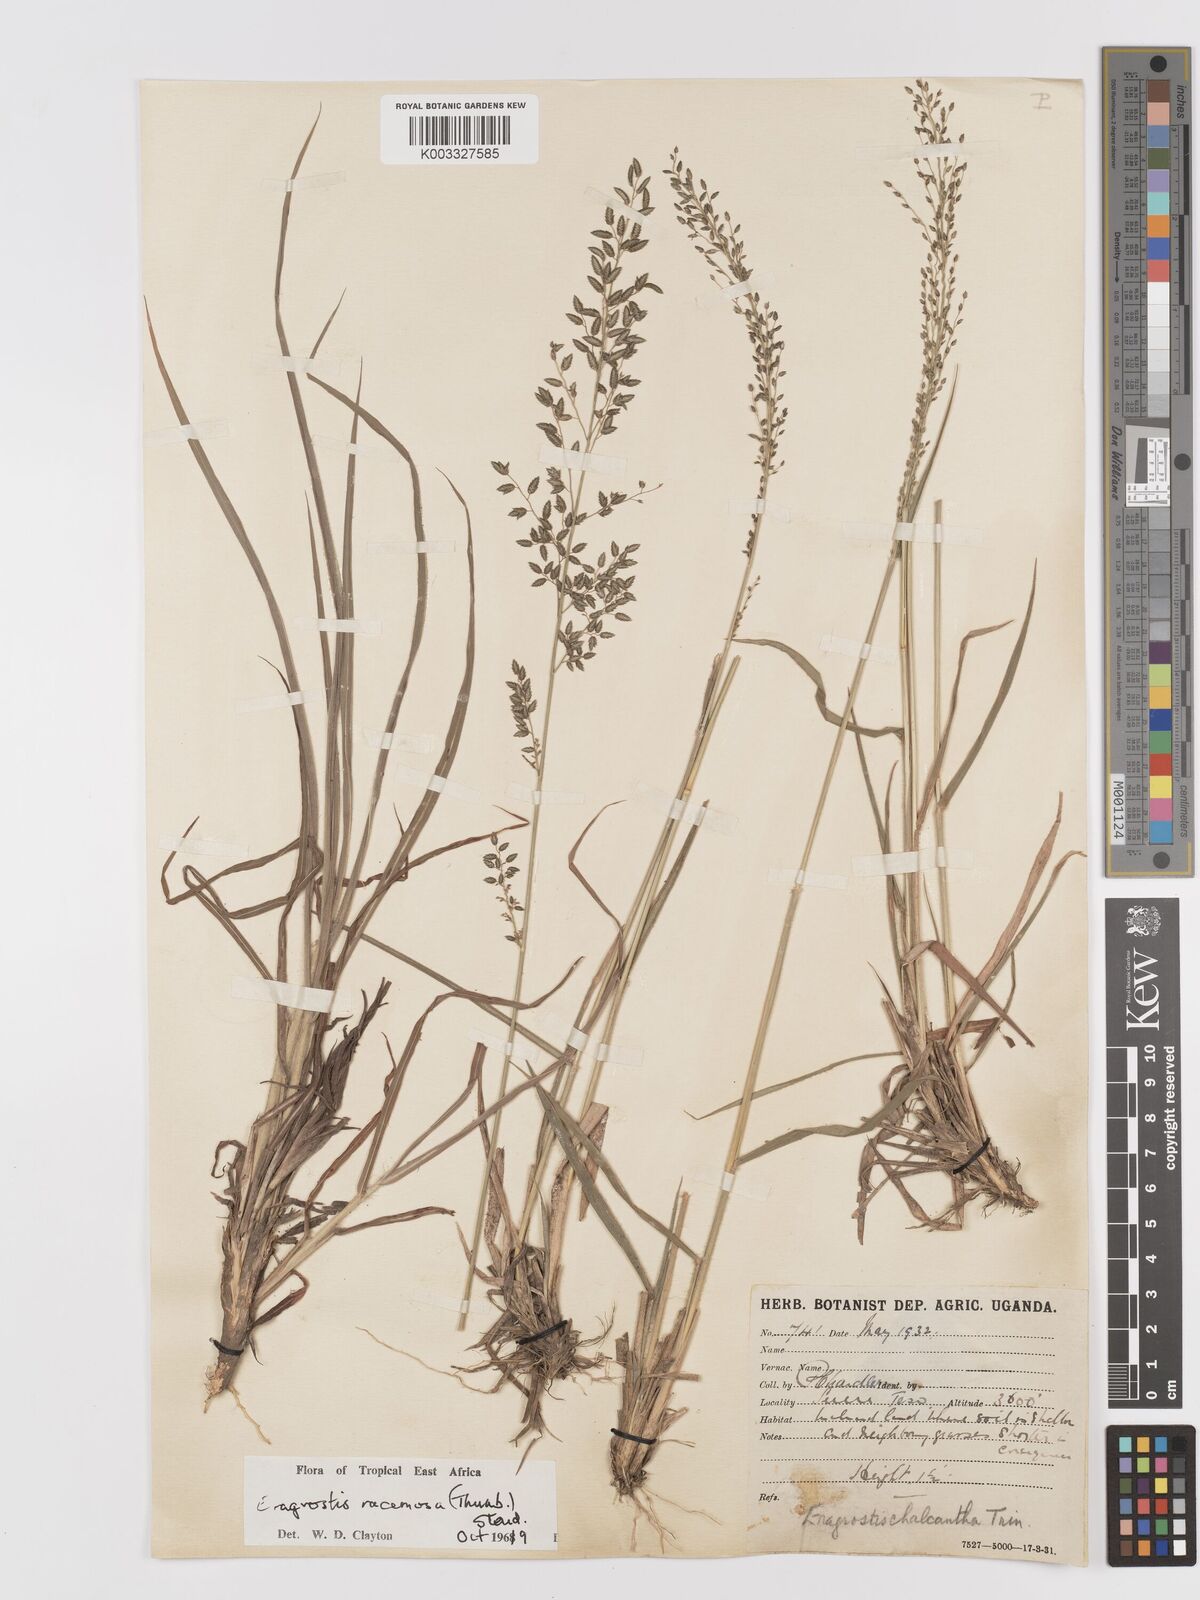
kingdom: Plantae
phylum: Tracheophyta
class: Liliopsida
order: Poales
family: Poaceae
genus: Eragrostis
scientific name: Eragrostis racemosa
